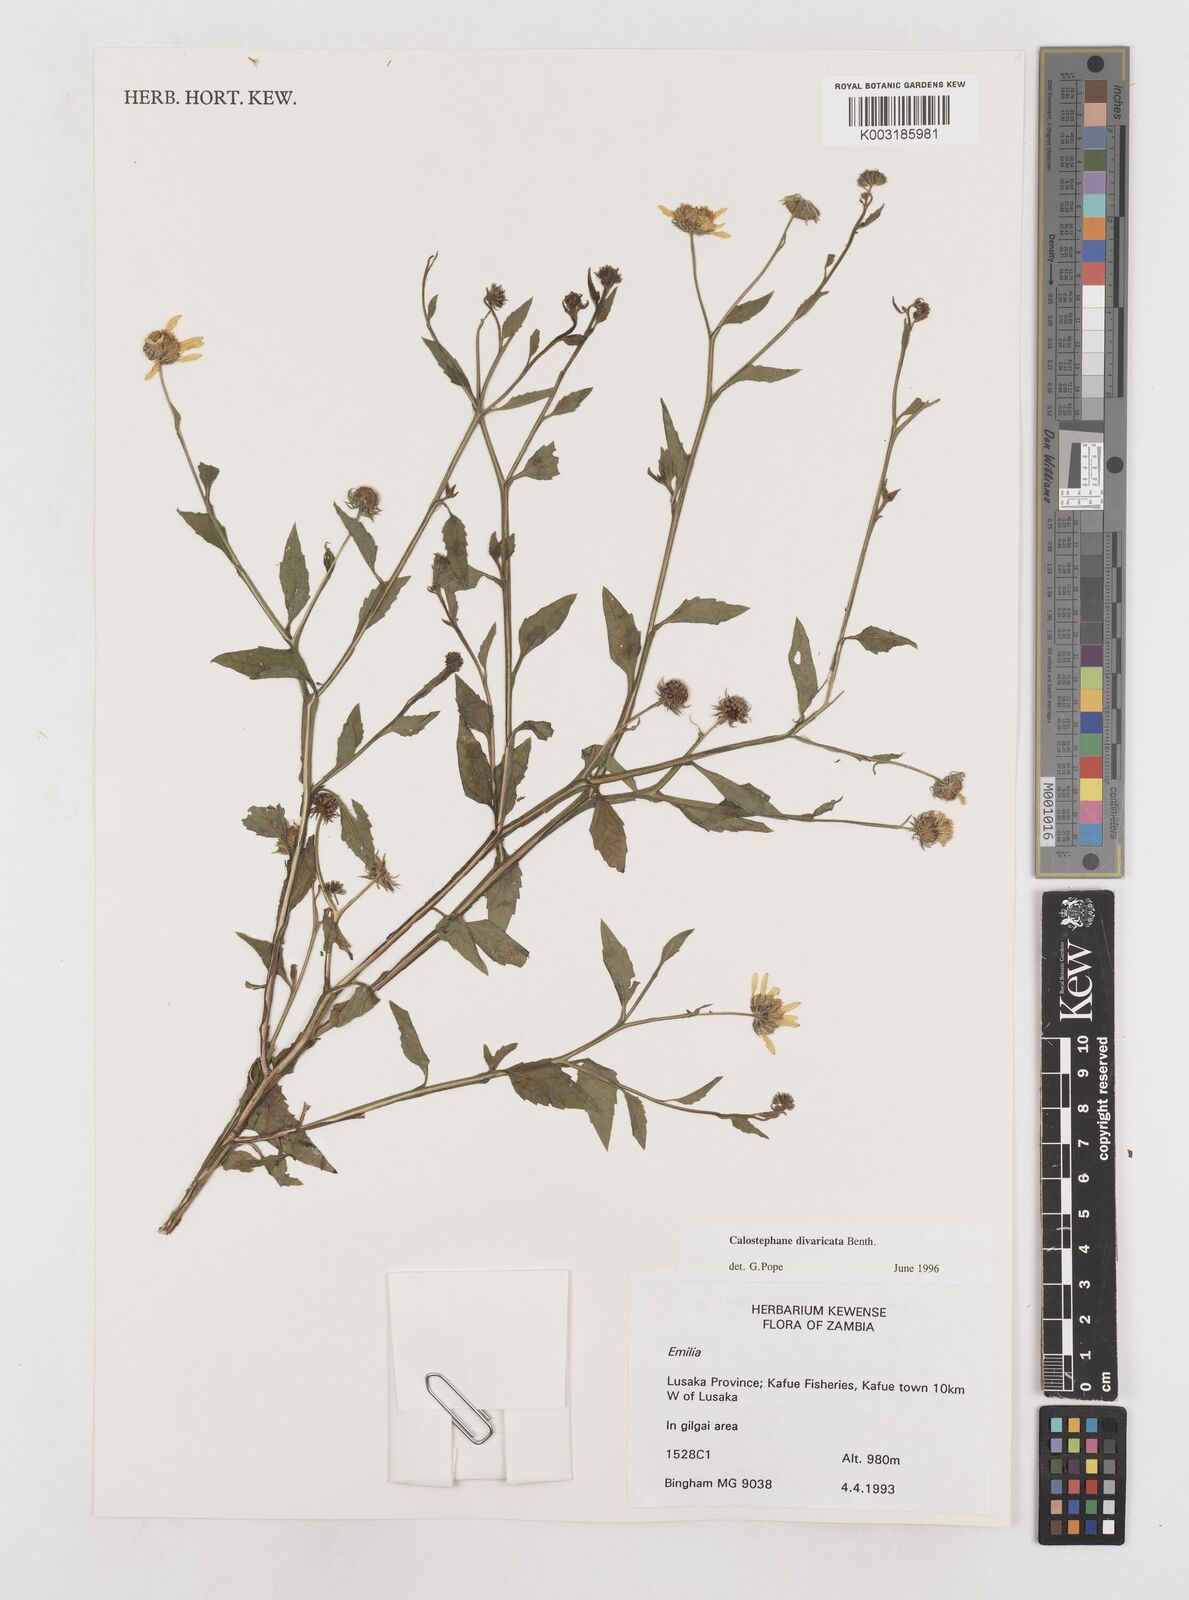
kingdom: Plantae
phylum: Tracheophyta
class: Magnoliopsida
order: Asterales
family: Asteraceae
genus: Calostephane
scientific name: Calostephane divaricata
